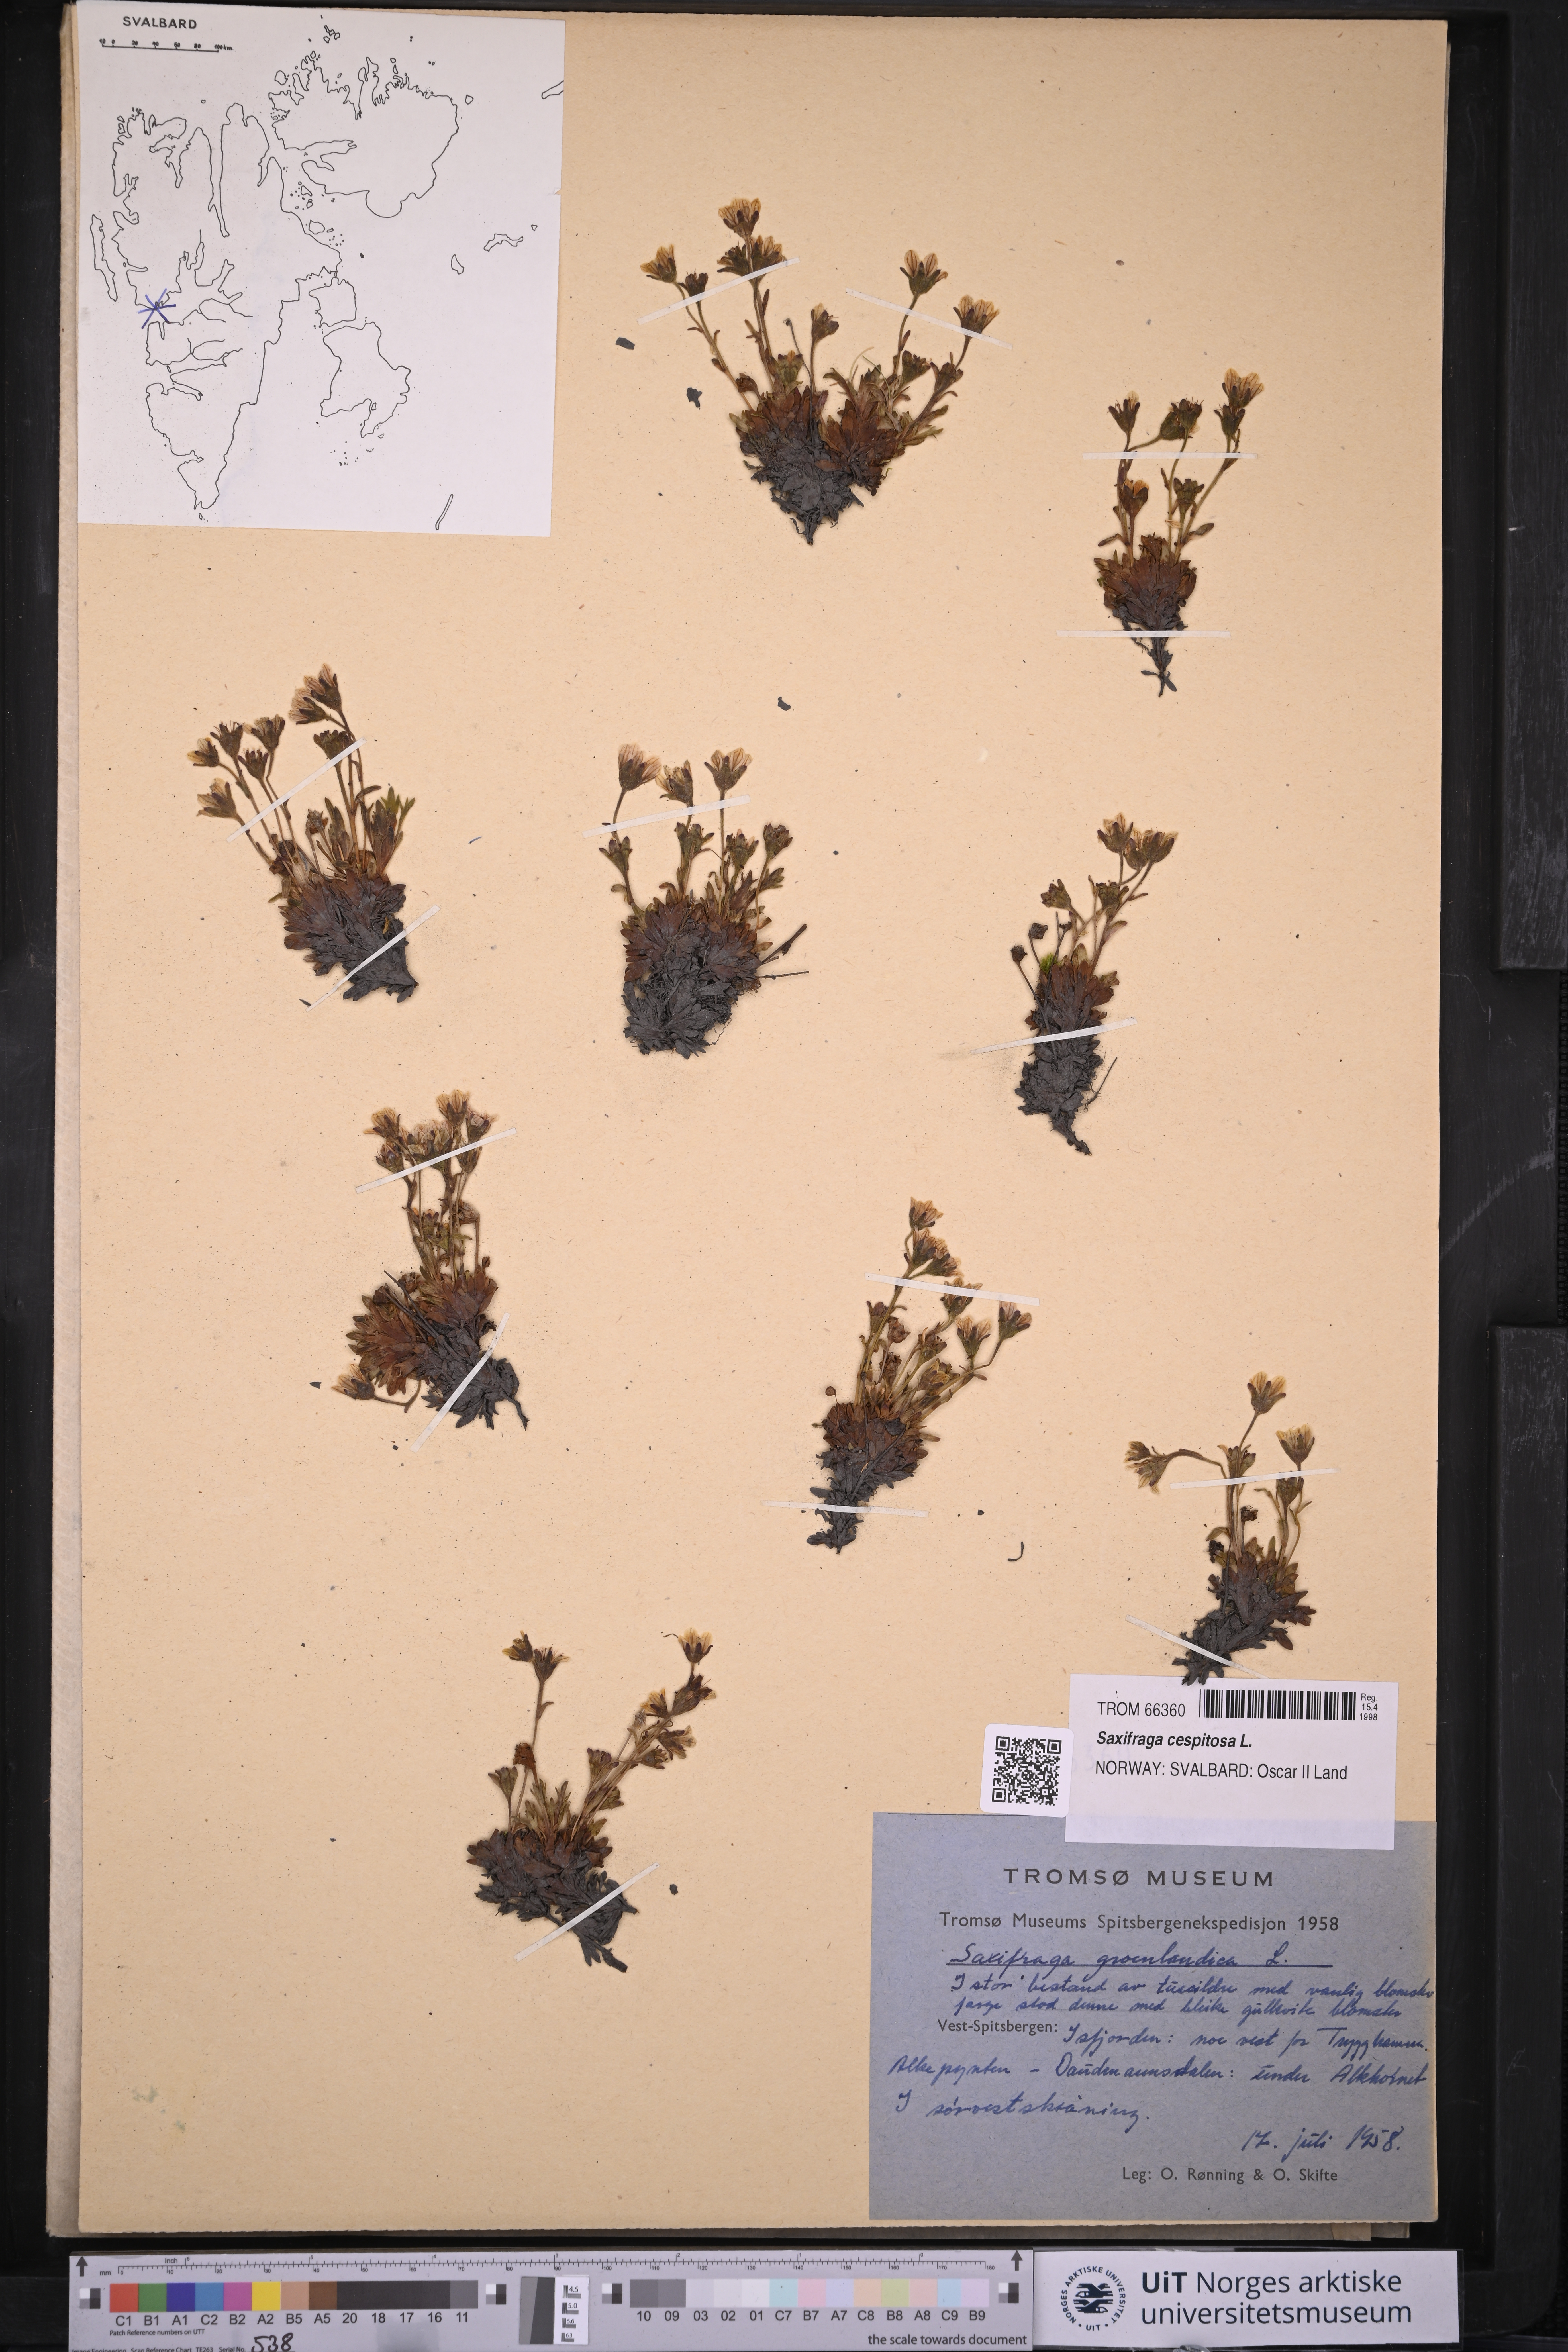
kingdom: Plantae
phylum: Tracheophyta
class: Magnoliopsida
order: Saxifragales
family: Saxifragaceae
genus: Saxifraga
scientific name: Saxifraga cespitosa
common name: Tufted saxifrage
